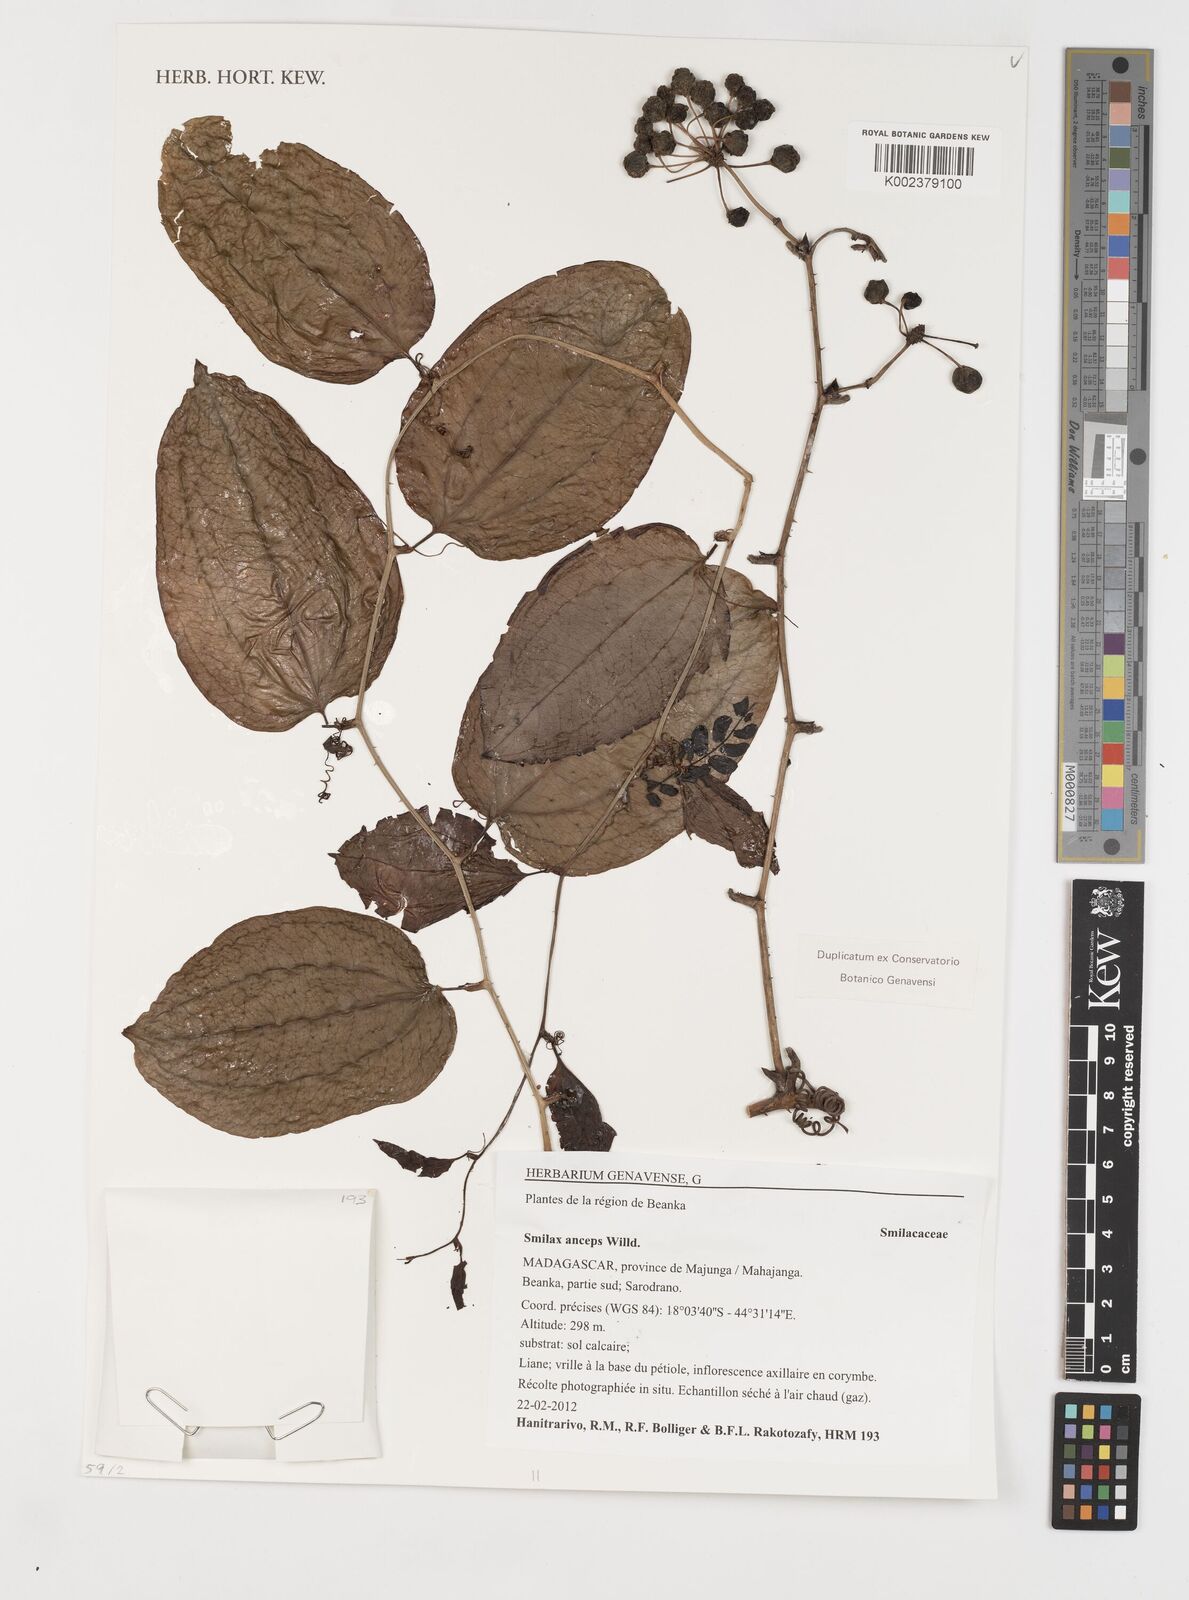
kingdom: Plantae
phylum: Tracheophyta
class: Liliopsida
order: Liliales
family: Smilacaceae
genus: Smilax
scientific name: Smilax anceps
